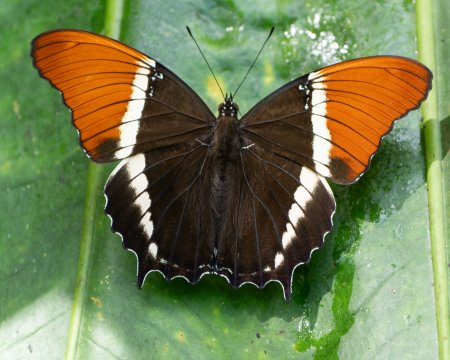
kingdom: Animalia
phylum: Arthropoda
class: Insecta
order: Lepidoptera
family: Nymphalidae
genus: Siproeta
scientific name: Siproeta epaphus
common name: Rusty-tipped Page
